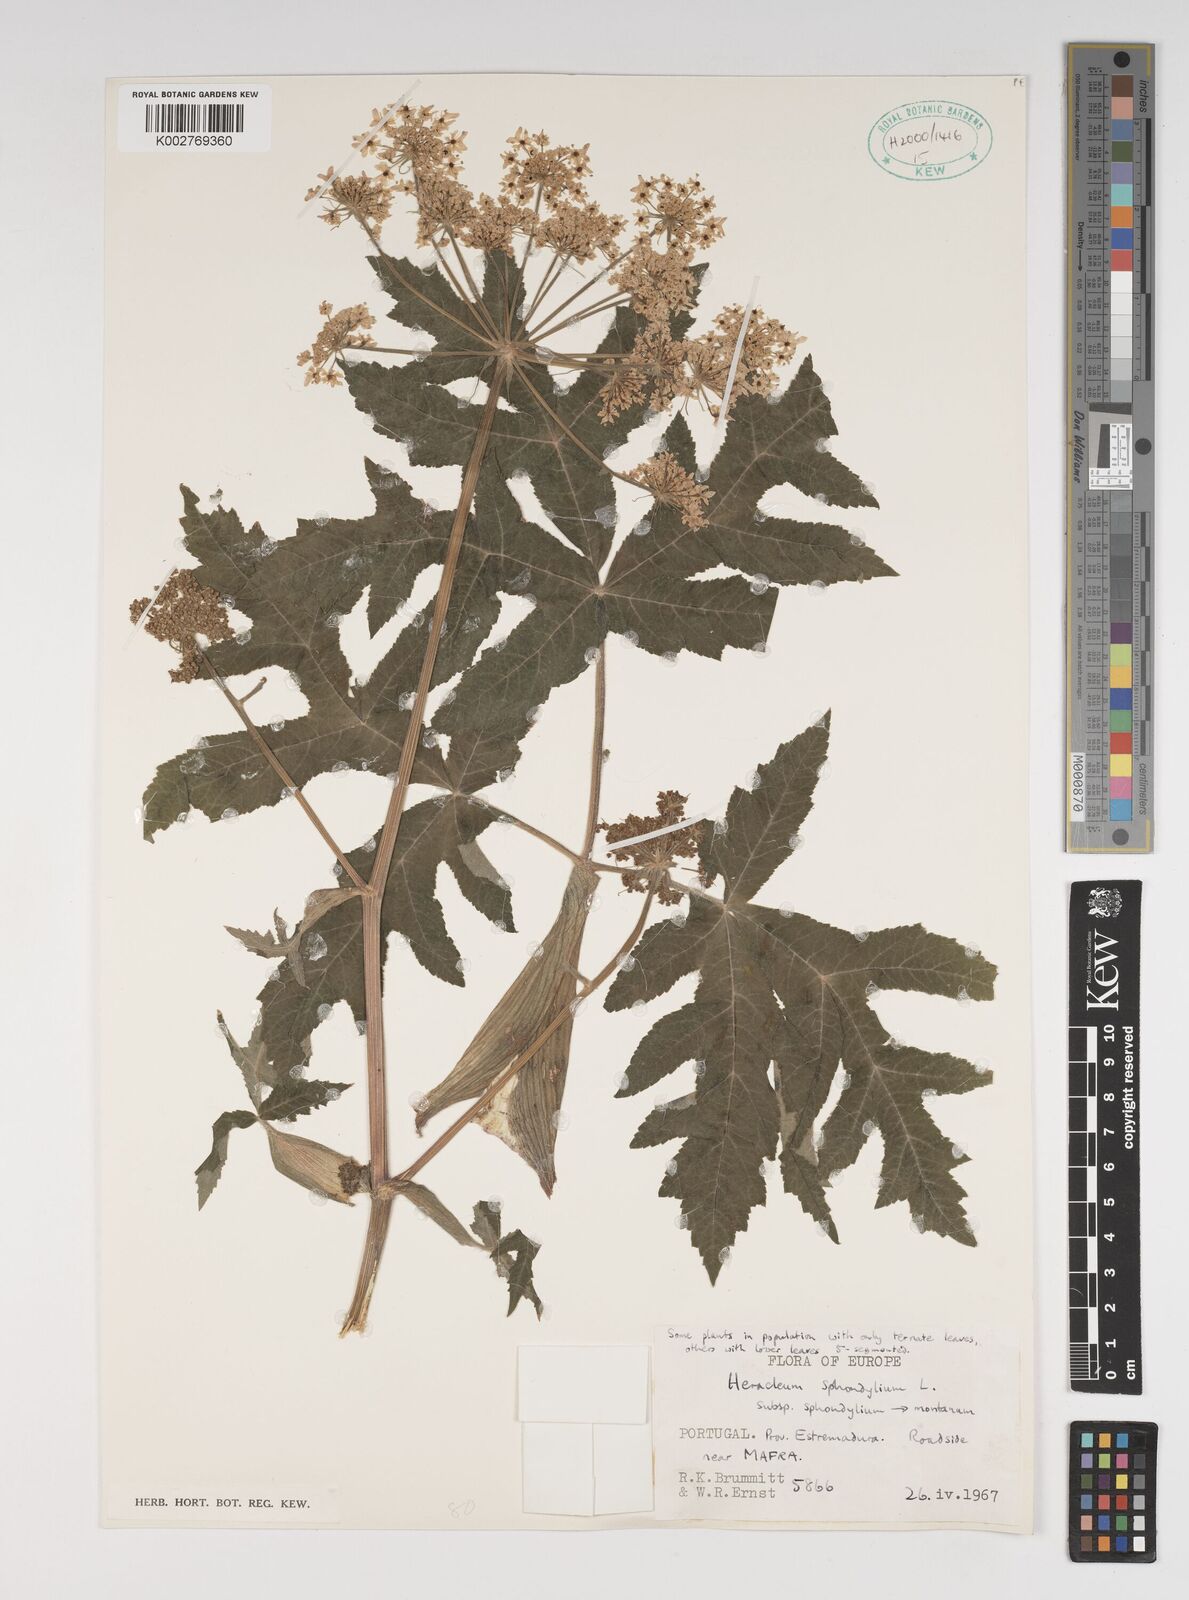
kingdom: Plantae
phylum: Tracheophyta
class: Magnoliopsida
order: Apiales
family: Apiaceae
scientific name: Apiaceae
